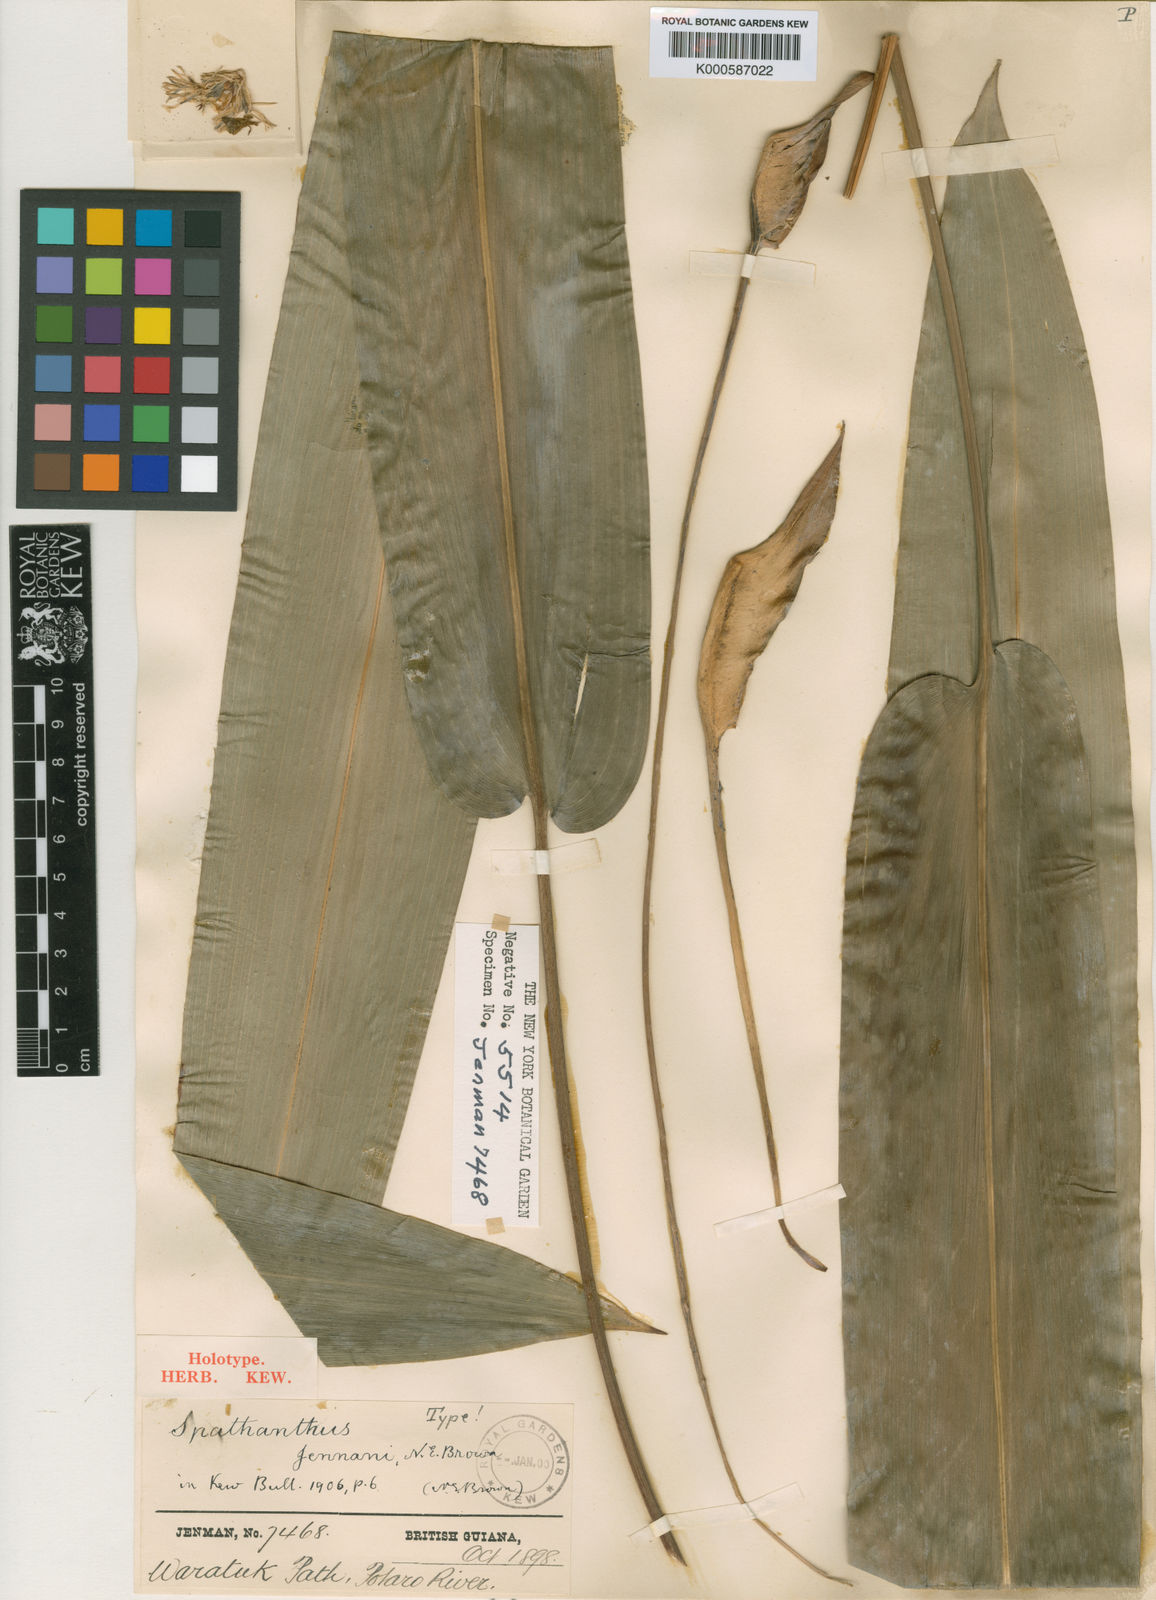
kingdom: Plantae
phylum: Tracheophyta
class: Liliopsida
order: Poales
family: Rapateaceae
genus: Spathanthus
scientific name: Spathanthus unilateralis
